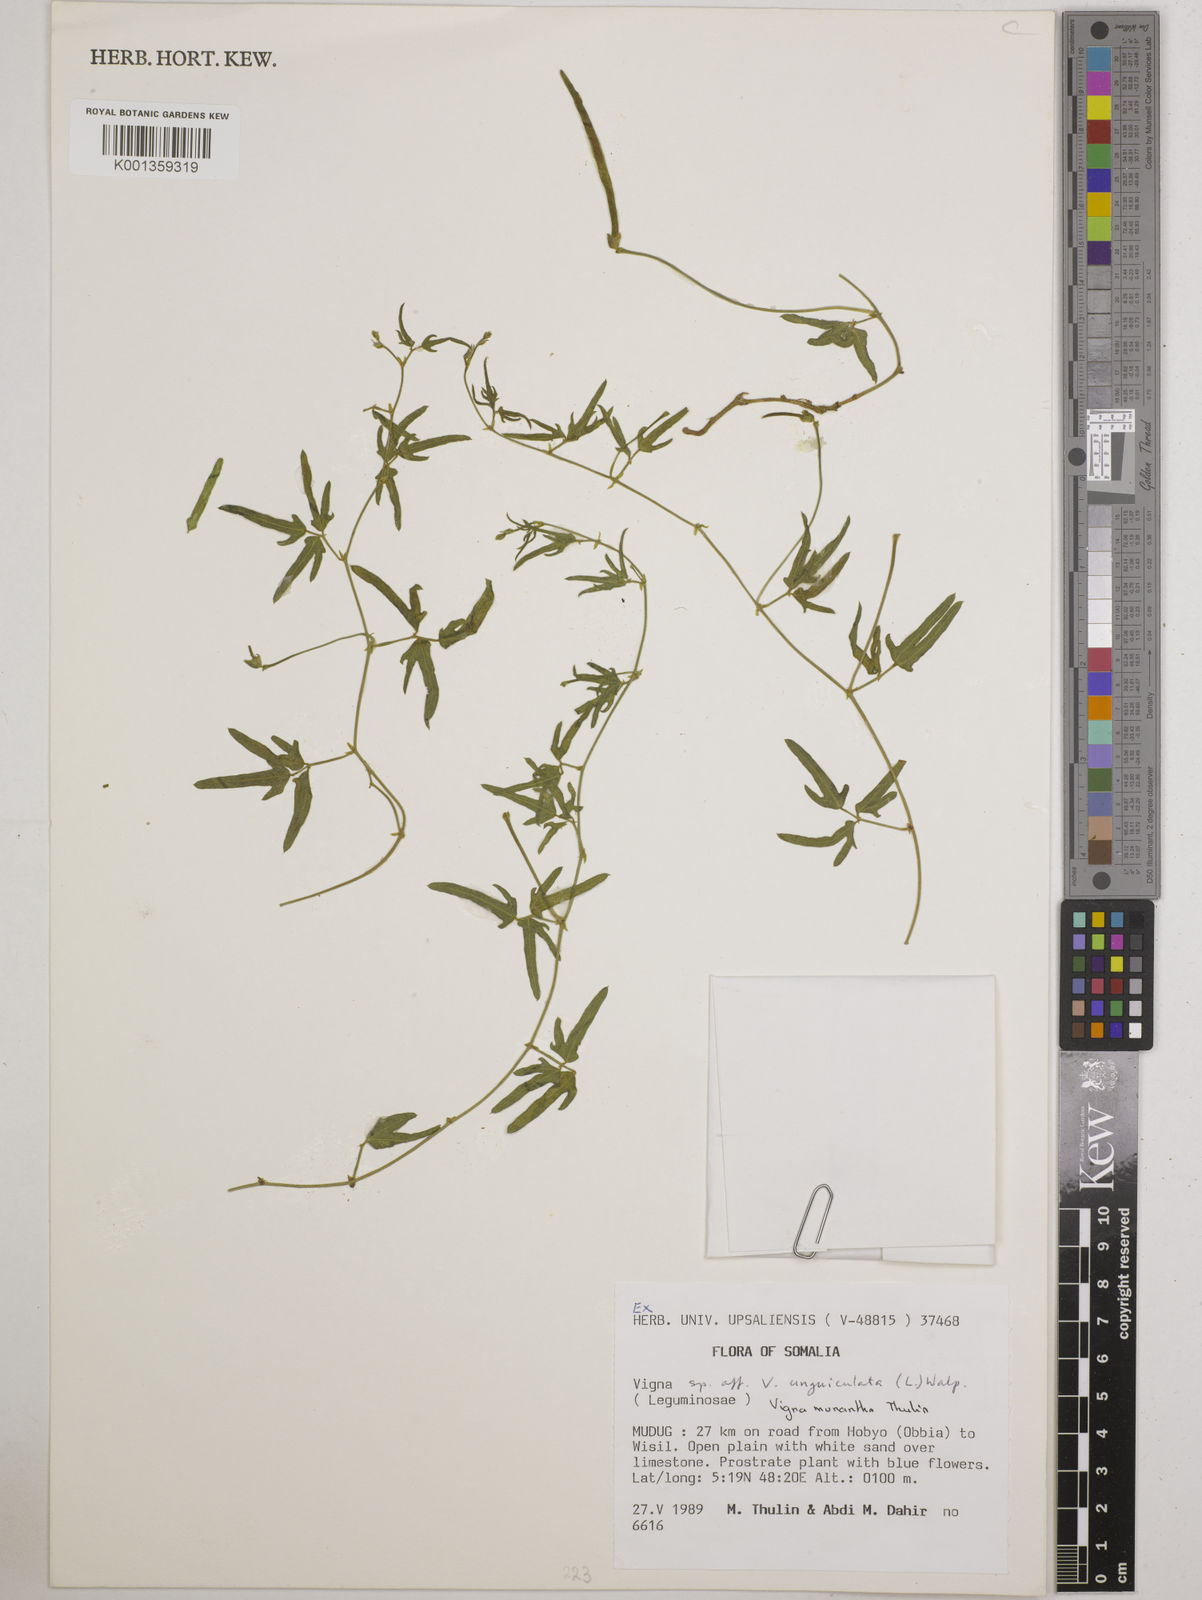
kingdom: Plantae
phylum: Tracheophyta
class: Magnoliopsida
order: Fabales
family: Fabaceae
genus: Vigna
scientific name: Vigna monantha
